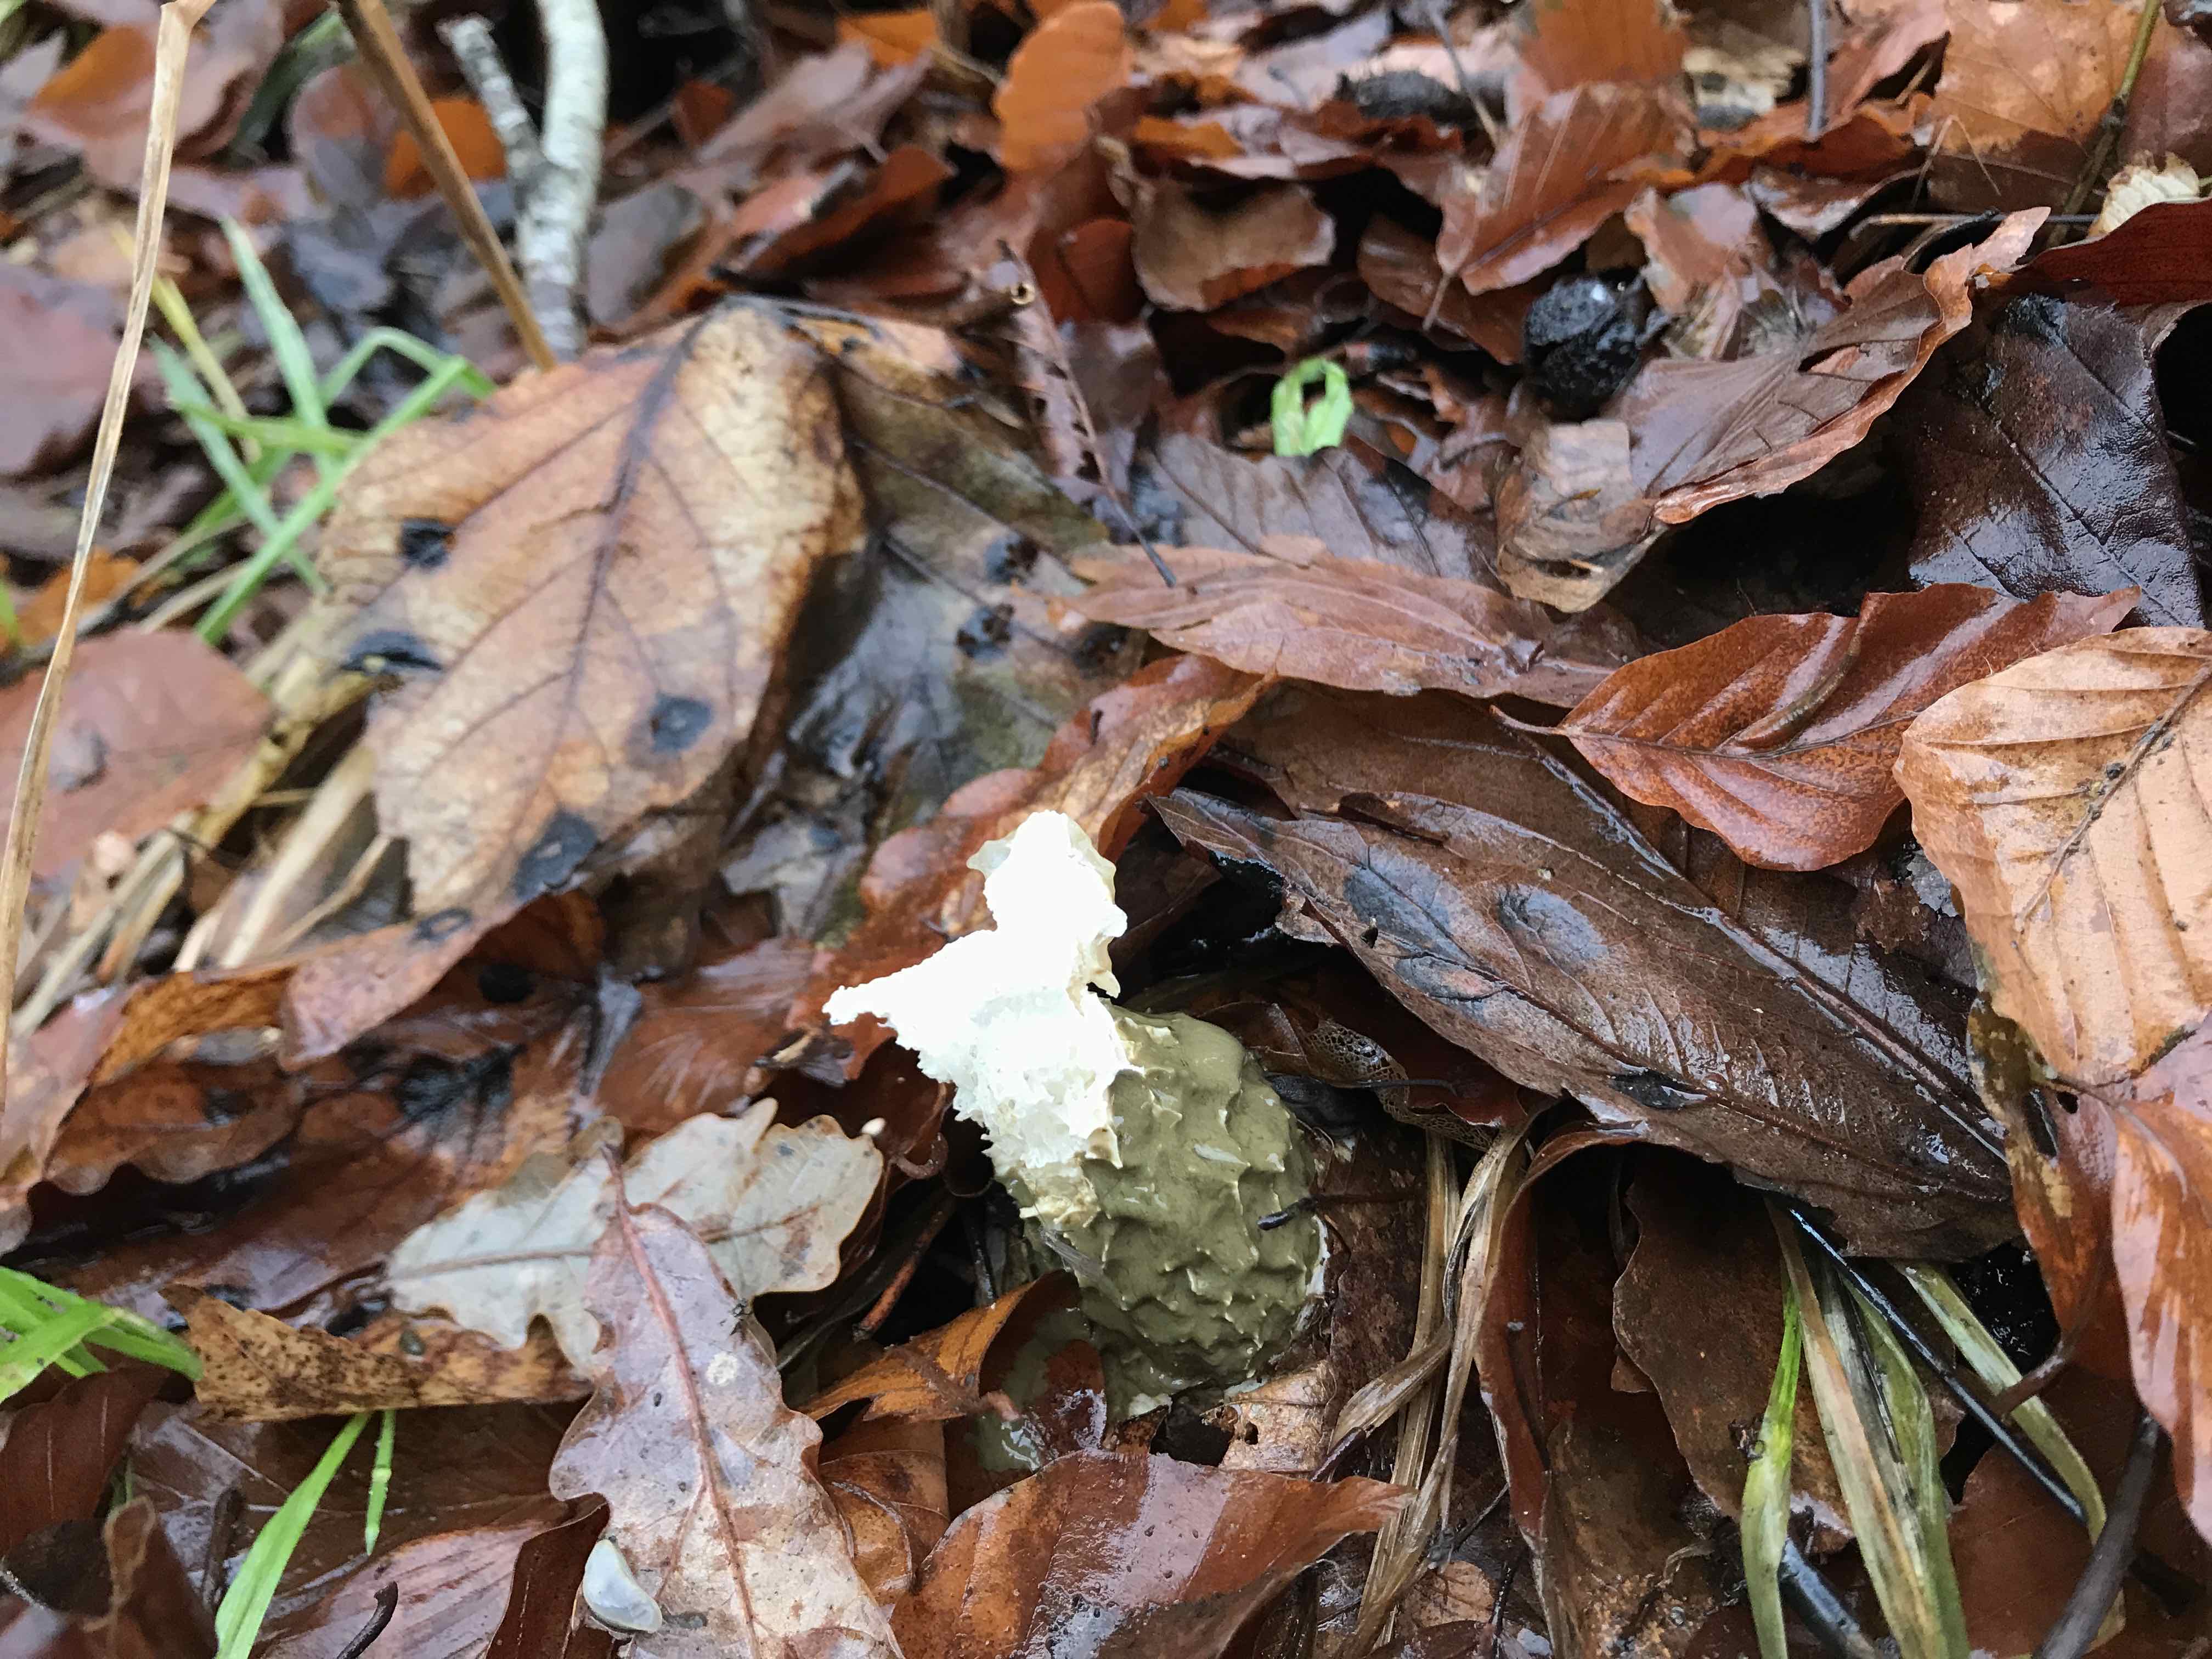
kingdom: Fungi
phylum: Basidiomycota
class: Agaricomycetes
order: Phallales
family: Phallaceae
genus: Phallus
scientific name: Phallus impudicus
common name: almindelig stinksvamp
